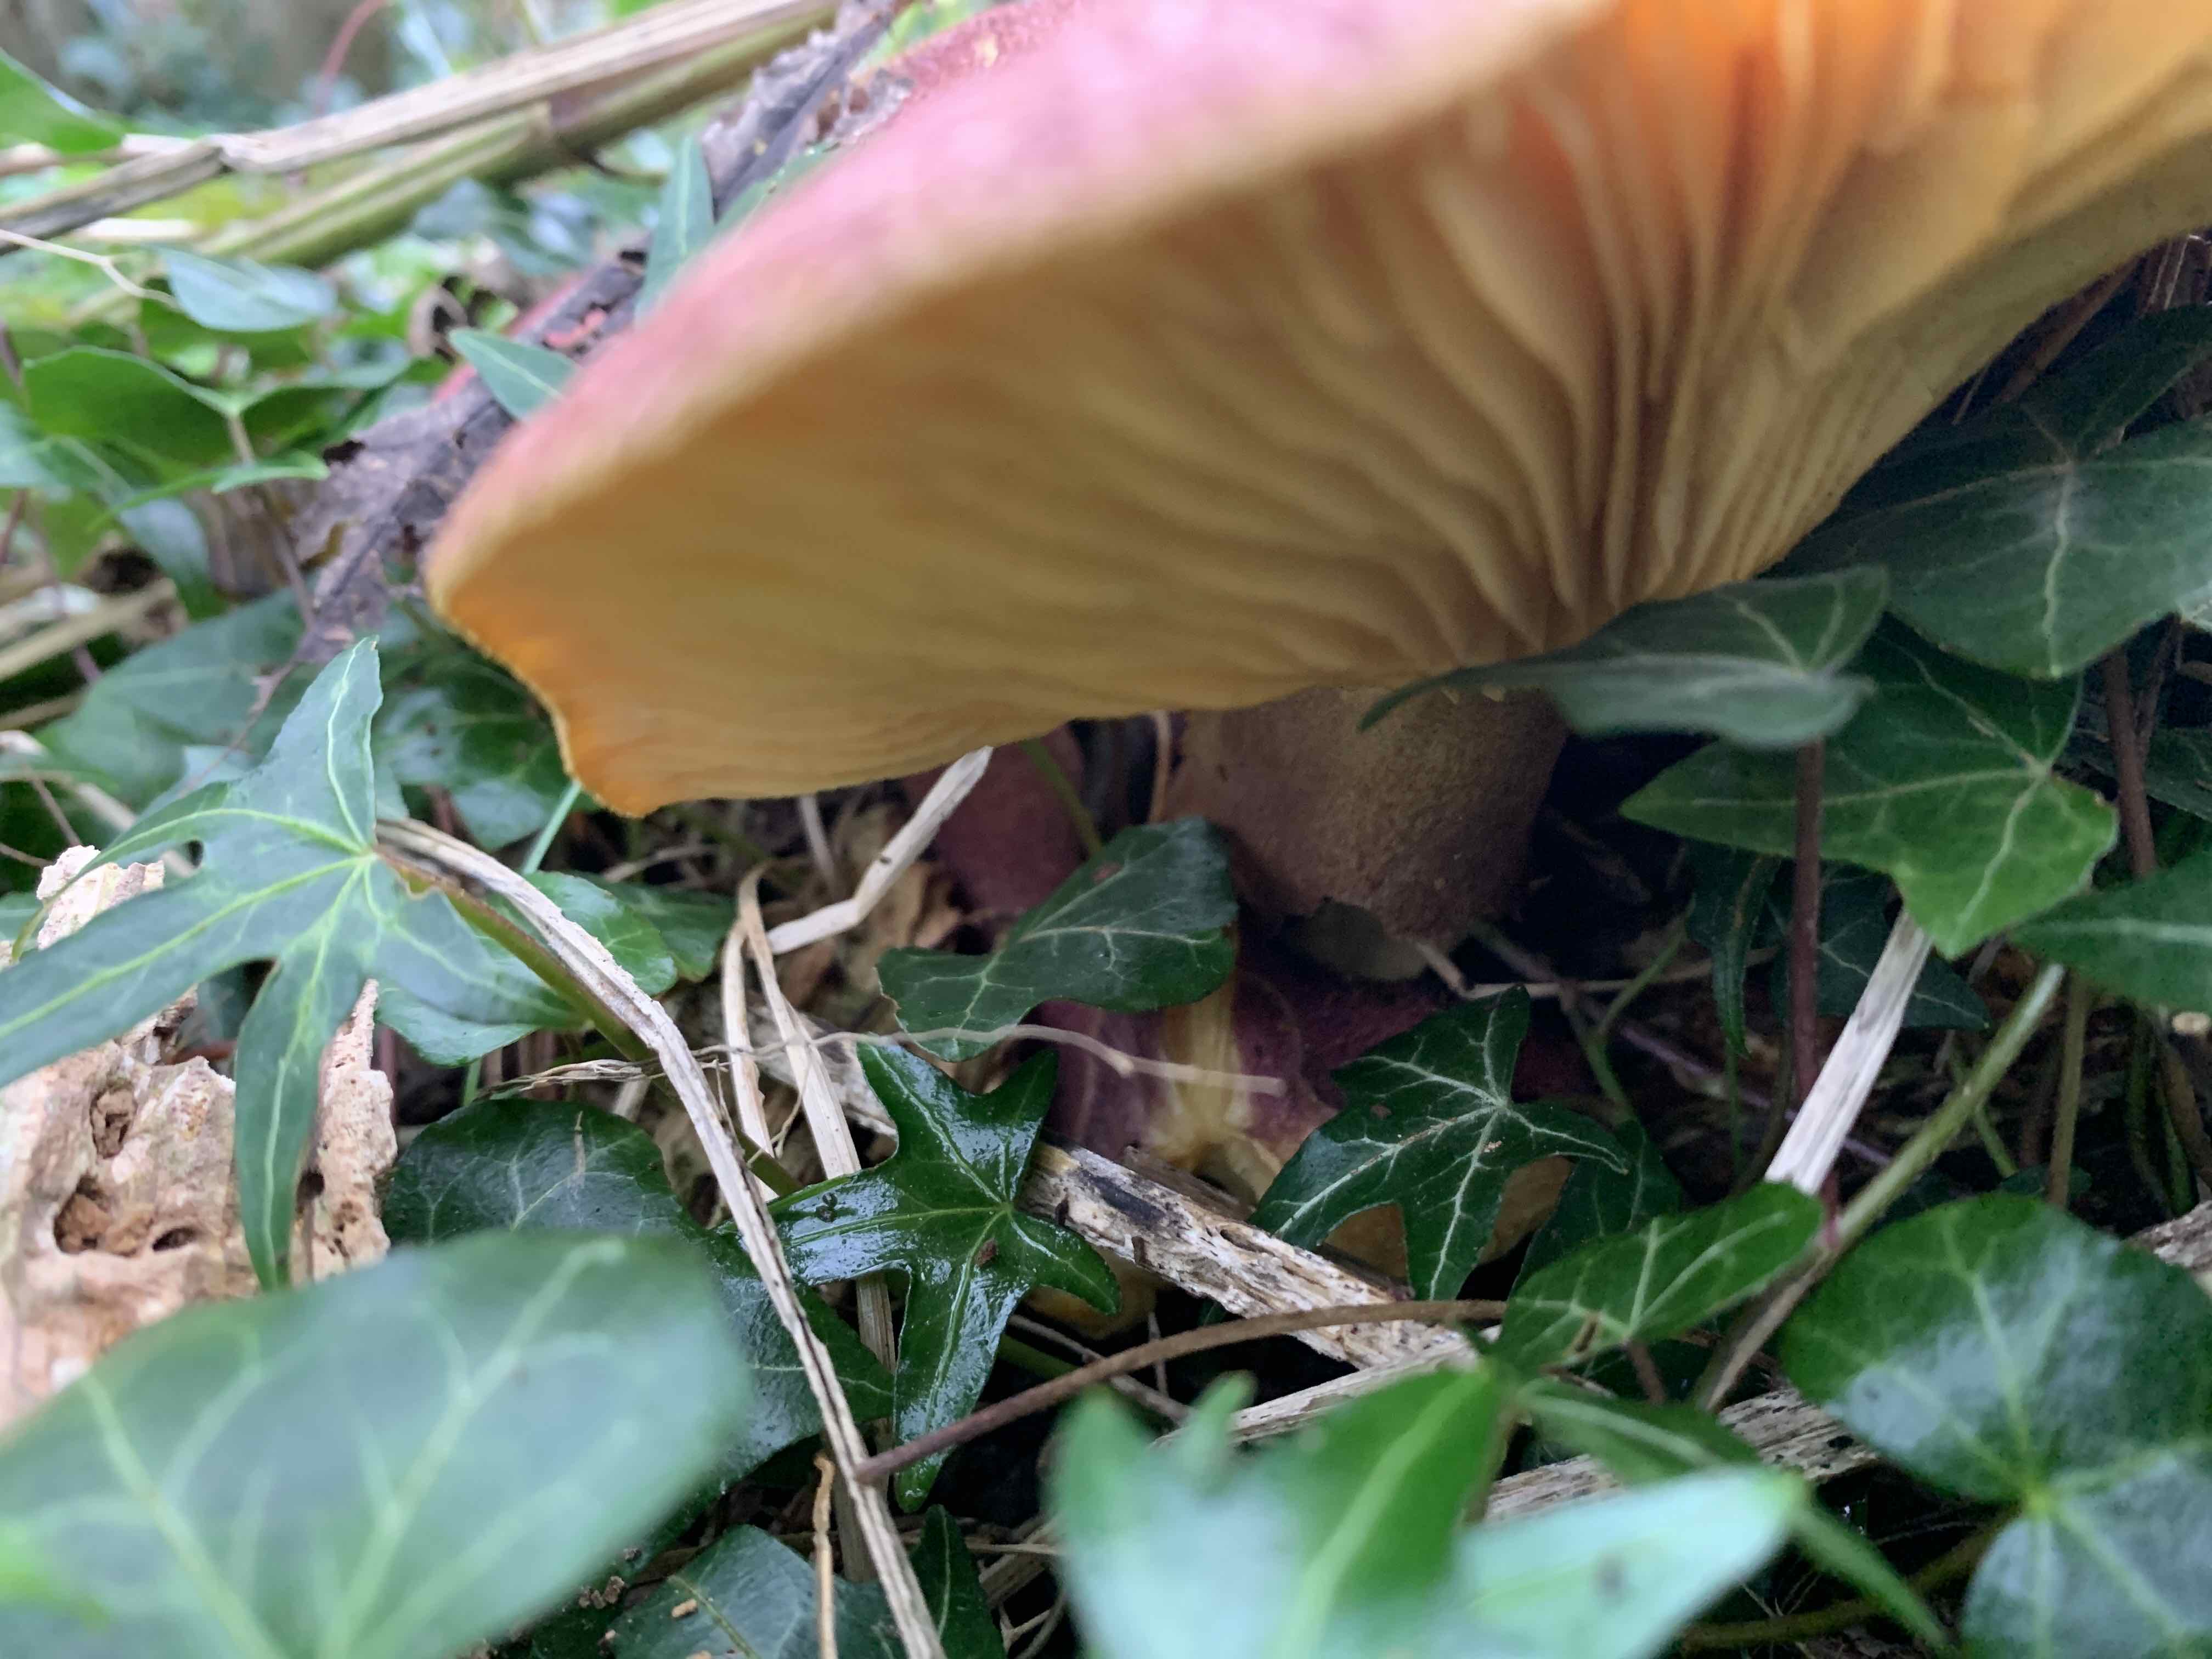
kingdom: Fungi
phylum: Basidiomycota
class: Agaricomycetes
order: Agaricales
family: Tricholomataceae
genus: Tricholomopsis
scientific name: Tricholomopsis rutilans
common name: purpur-væbnerhat
